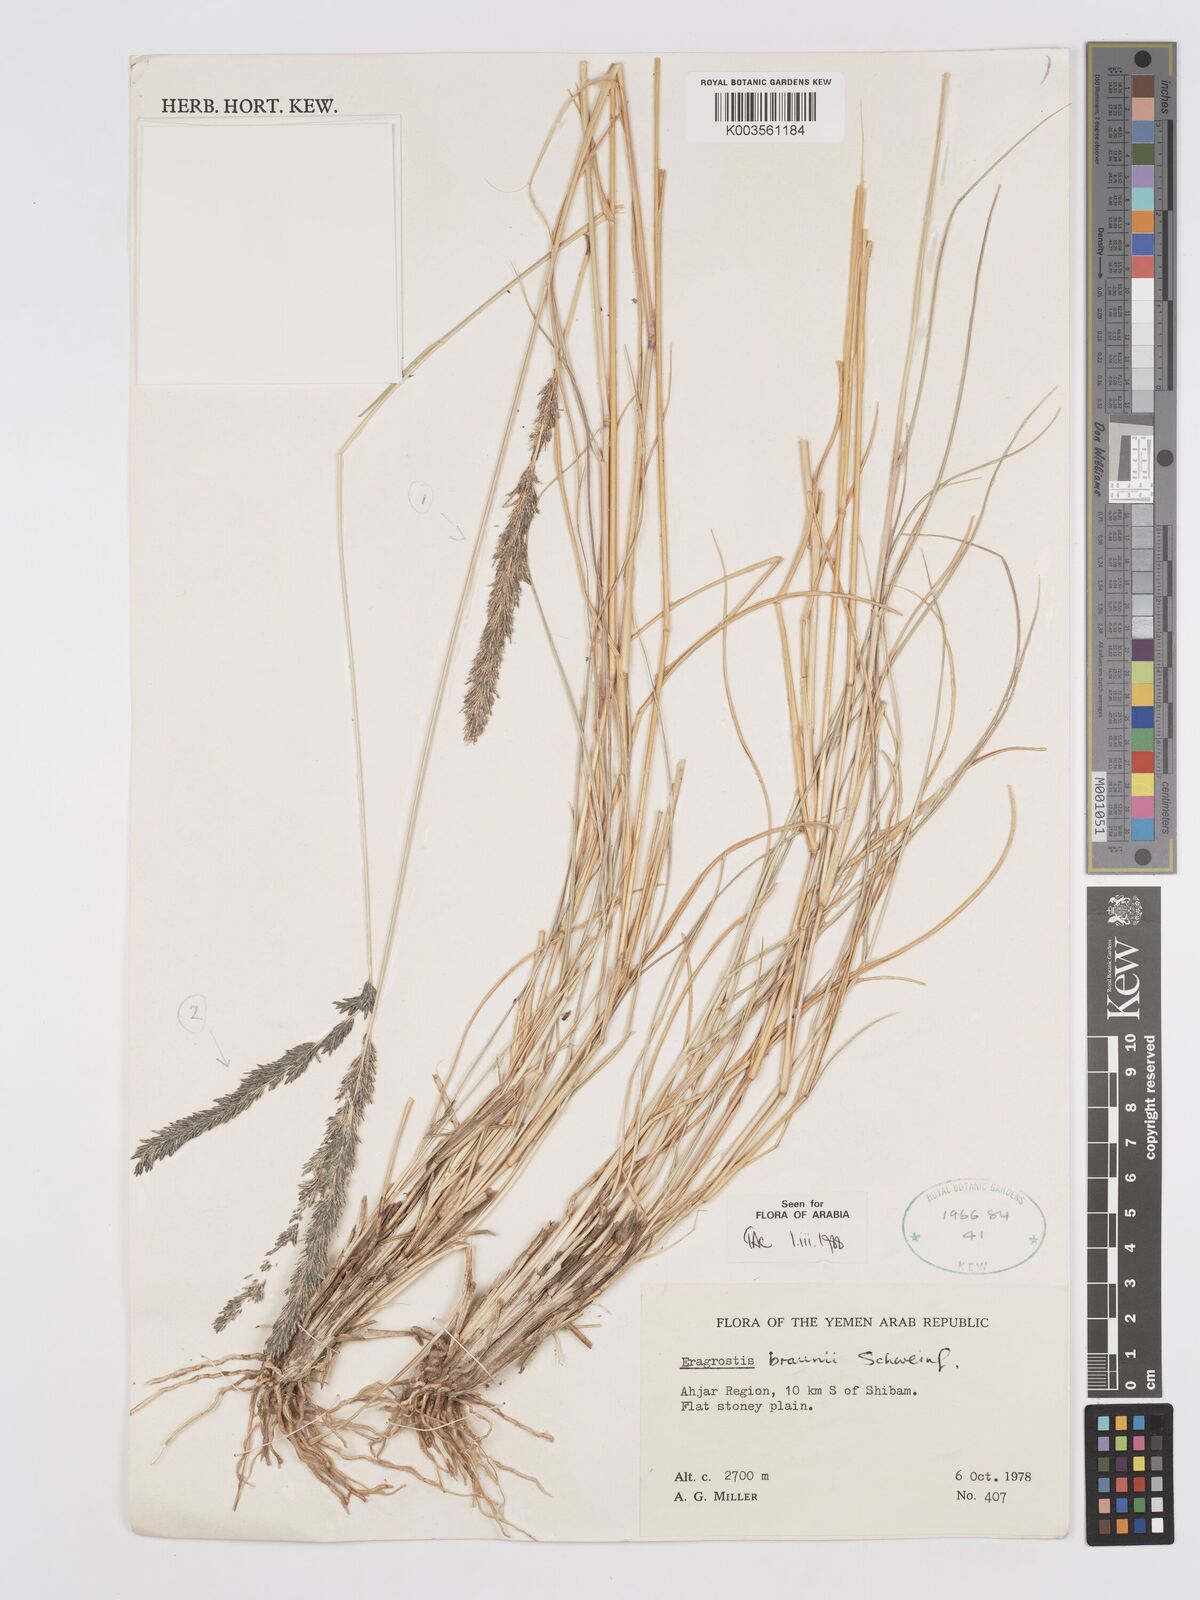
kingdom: Plantae
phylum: Tracheophyta
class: Liliopsida
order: Poales
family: Poaceae
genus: Eragrostis
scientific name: Eragrostis braunii
